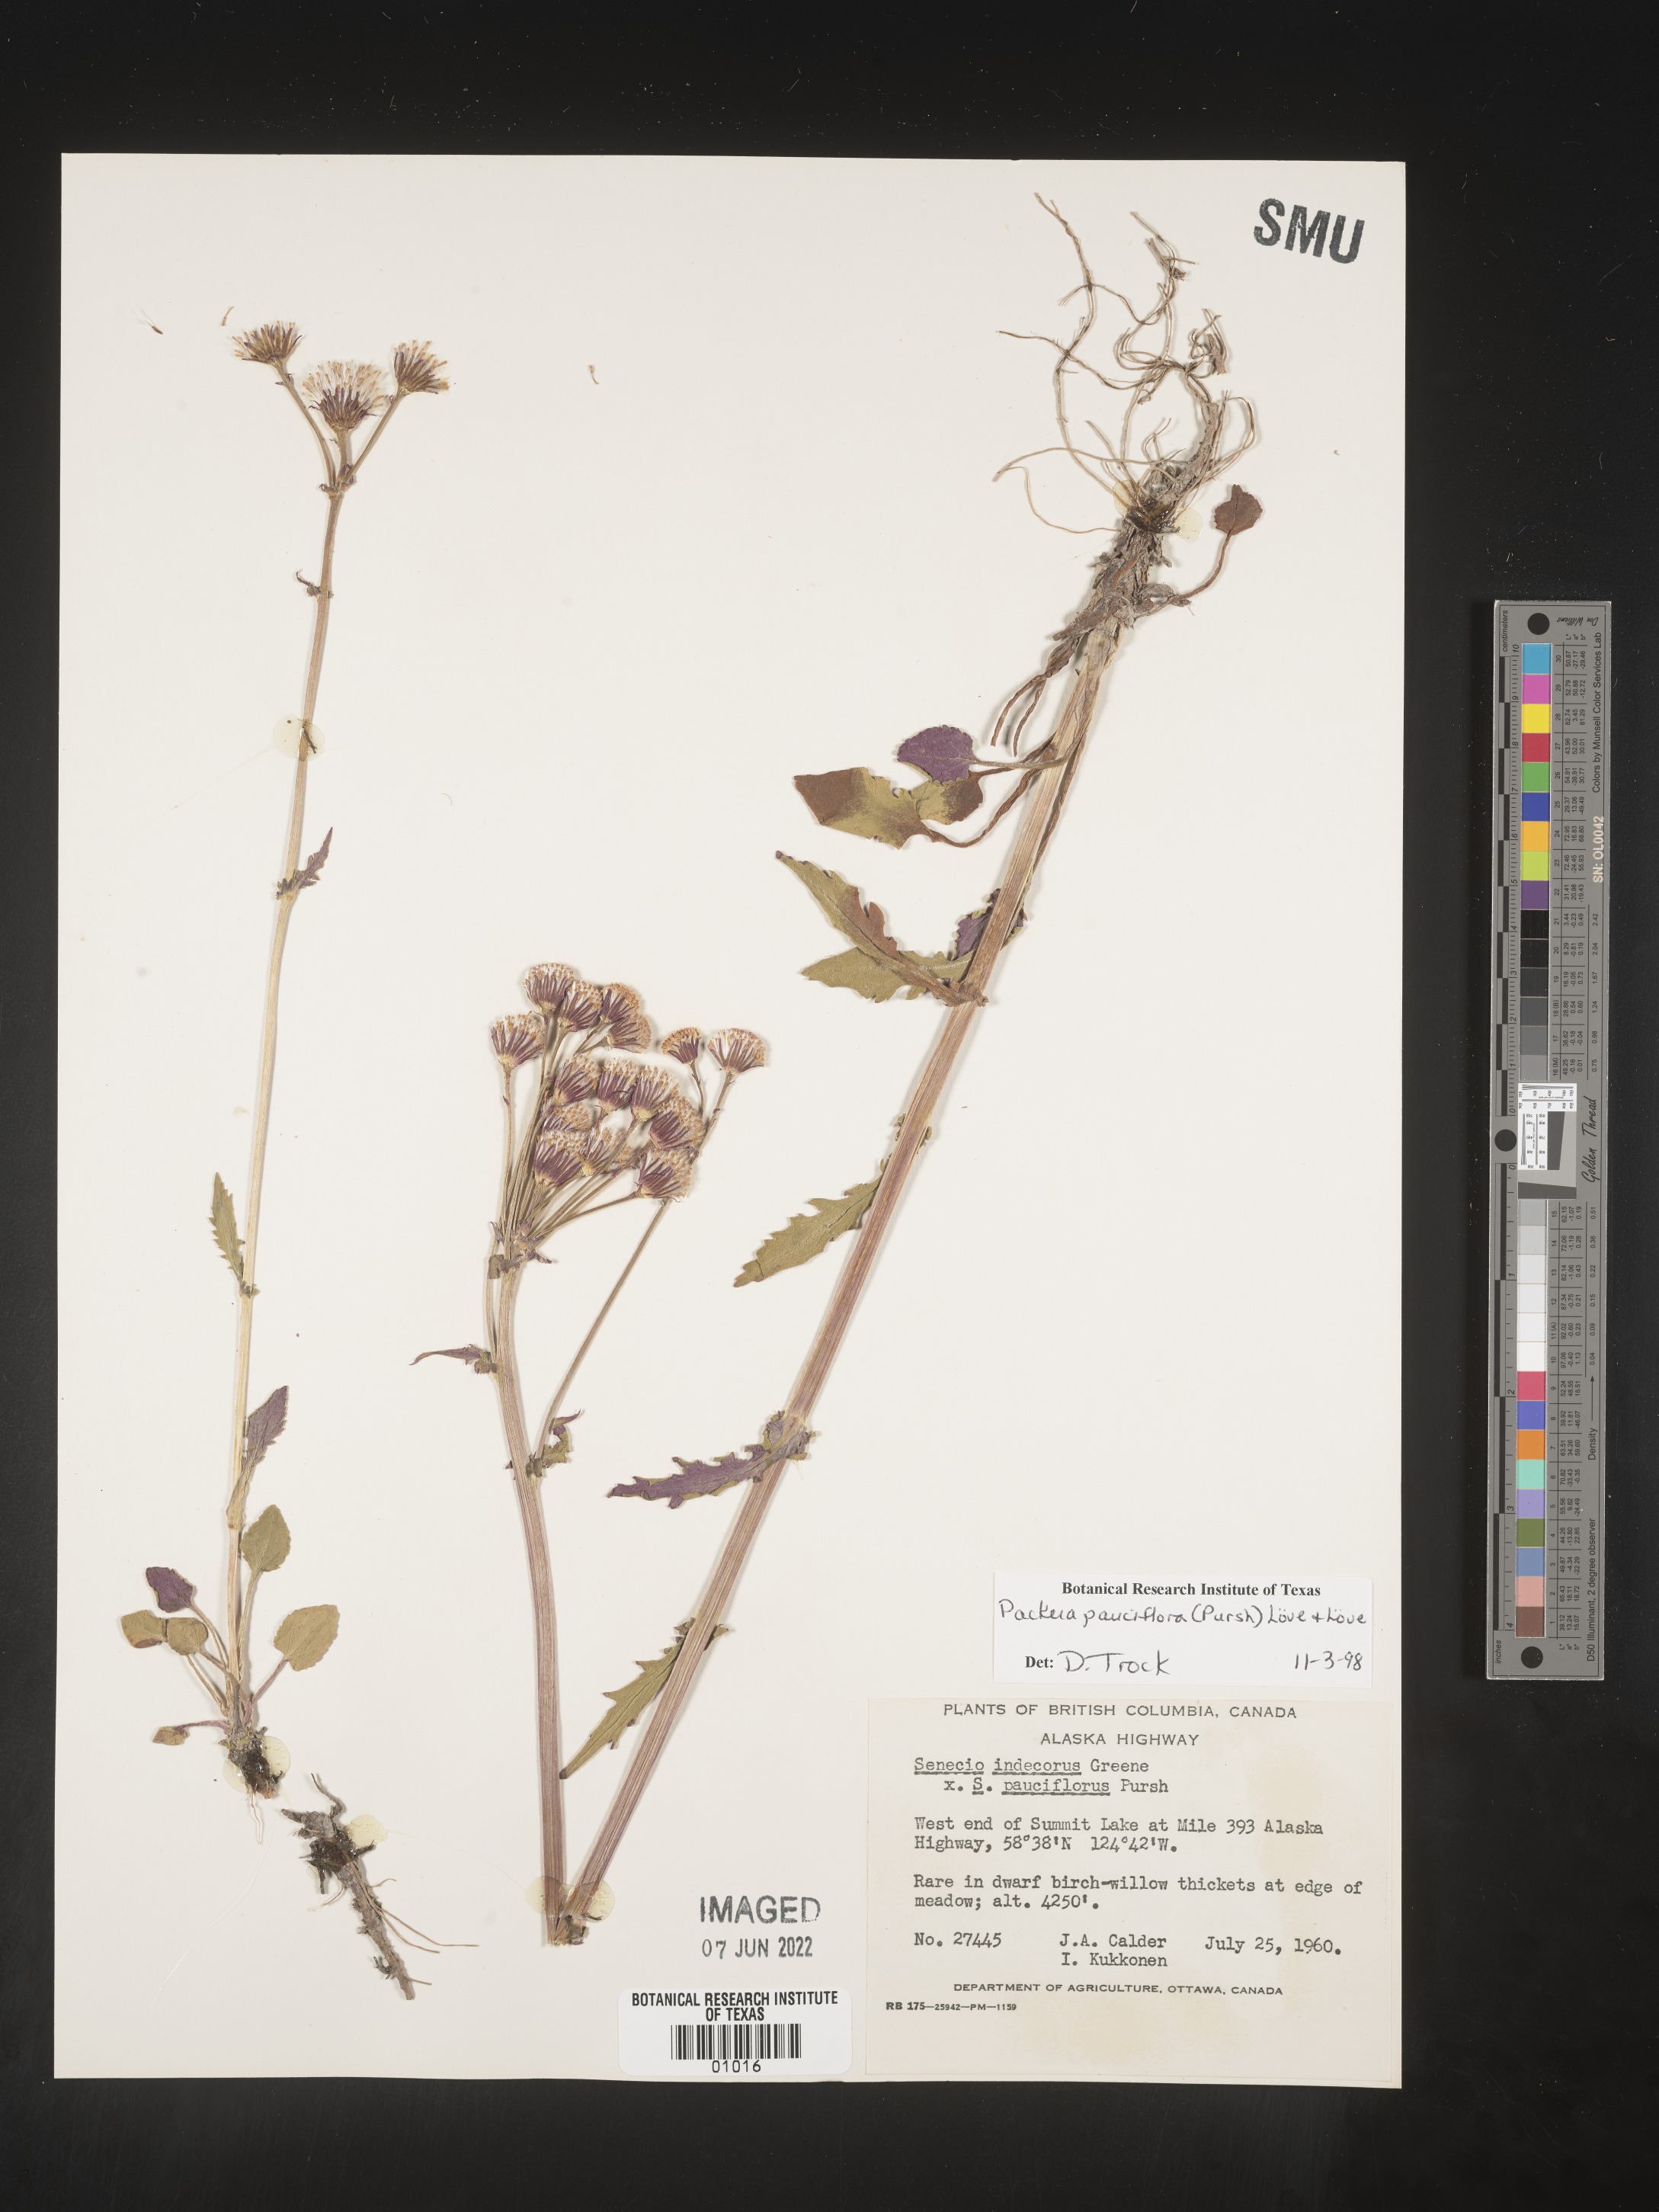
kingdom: Plantae
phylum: Tracheophyta
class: Magnoliopsida
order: Asterales
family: Asteraceae
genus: Packera
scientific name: Packera pauciflora
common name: Alpine groundsel
